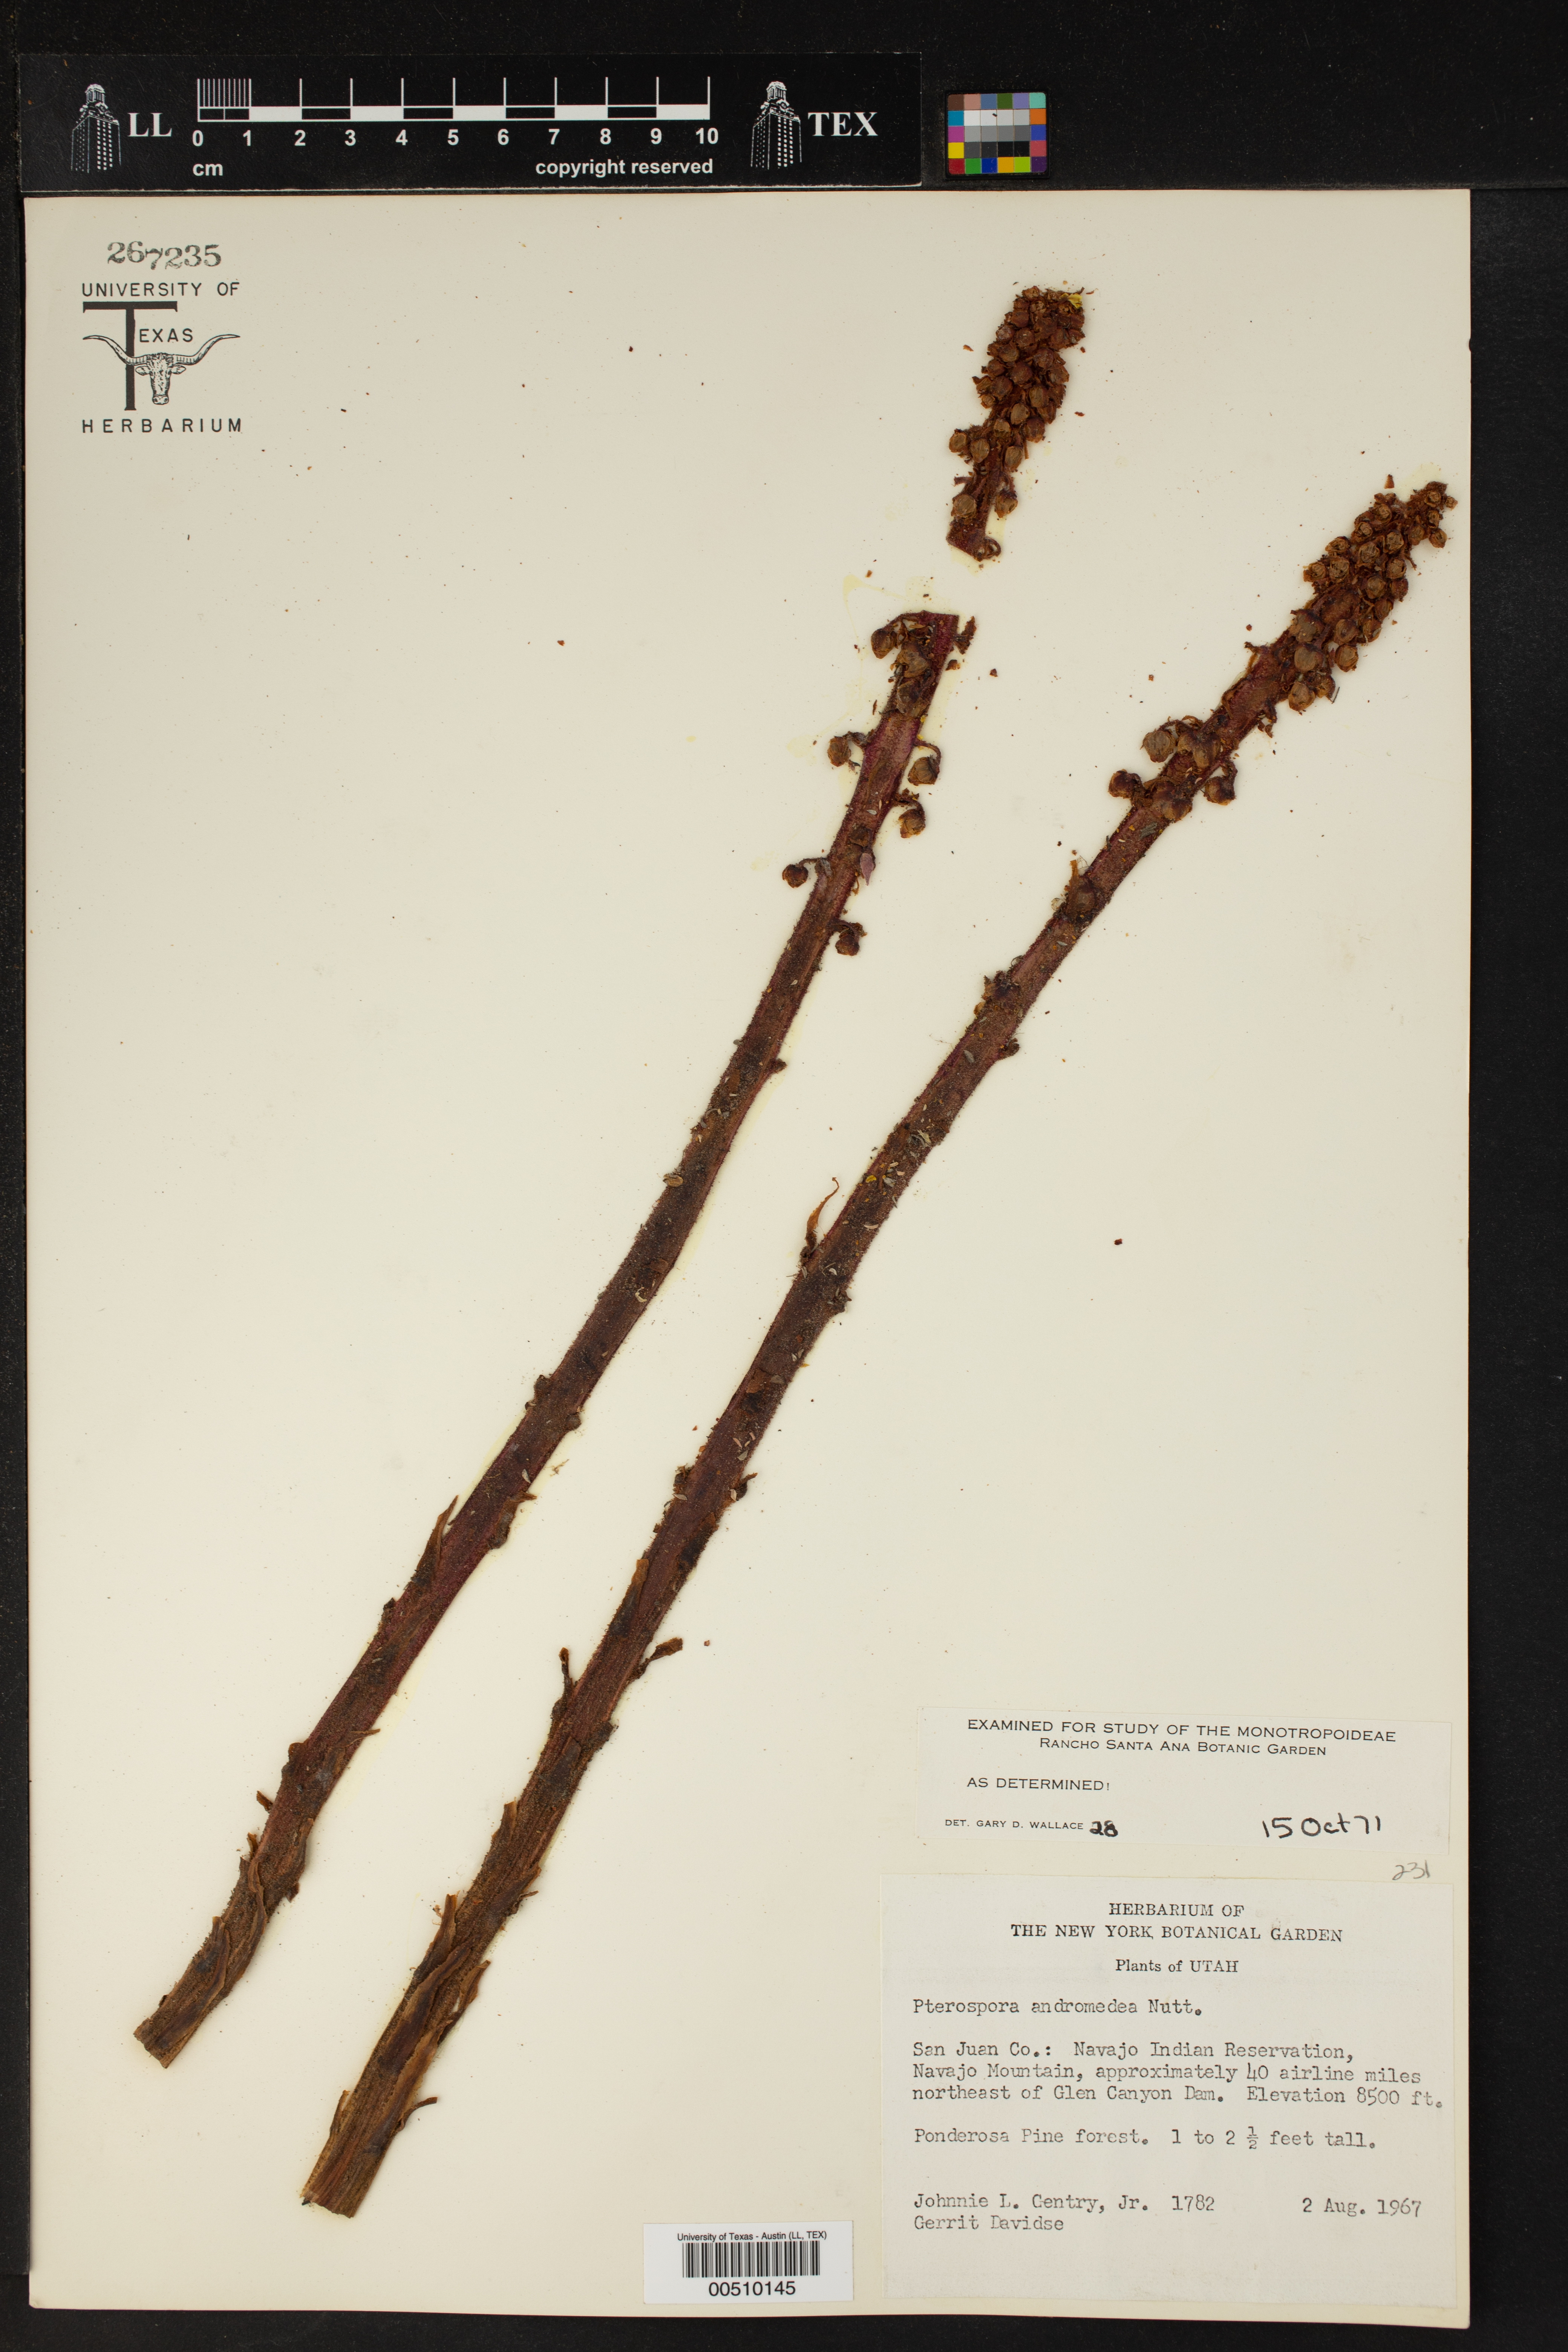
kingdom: Plantae
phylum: Tracheophyta
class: Magnoliopsida
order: Ericales
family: Ericaceae
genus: Pterospora
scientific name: Pterospora andromedea
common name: Giant bird's-nest
